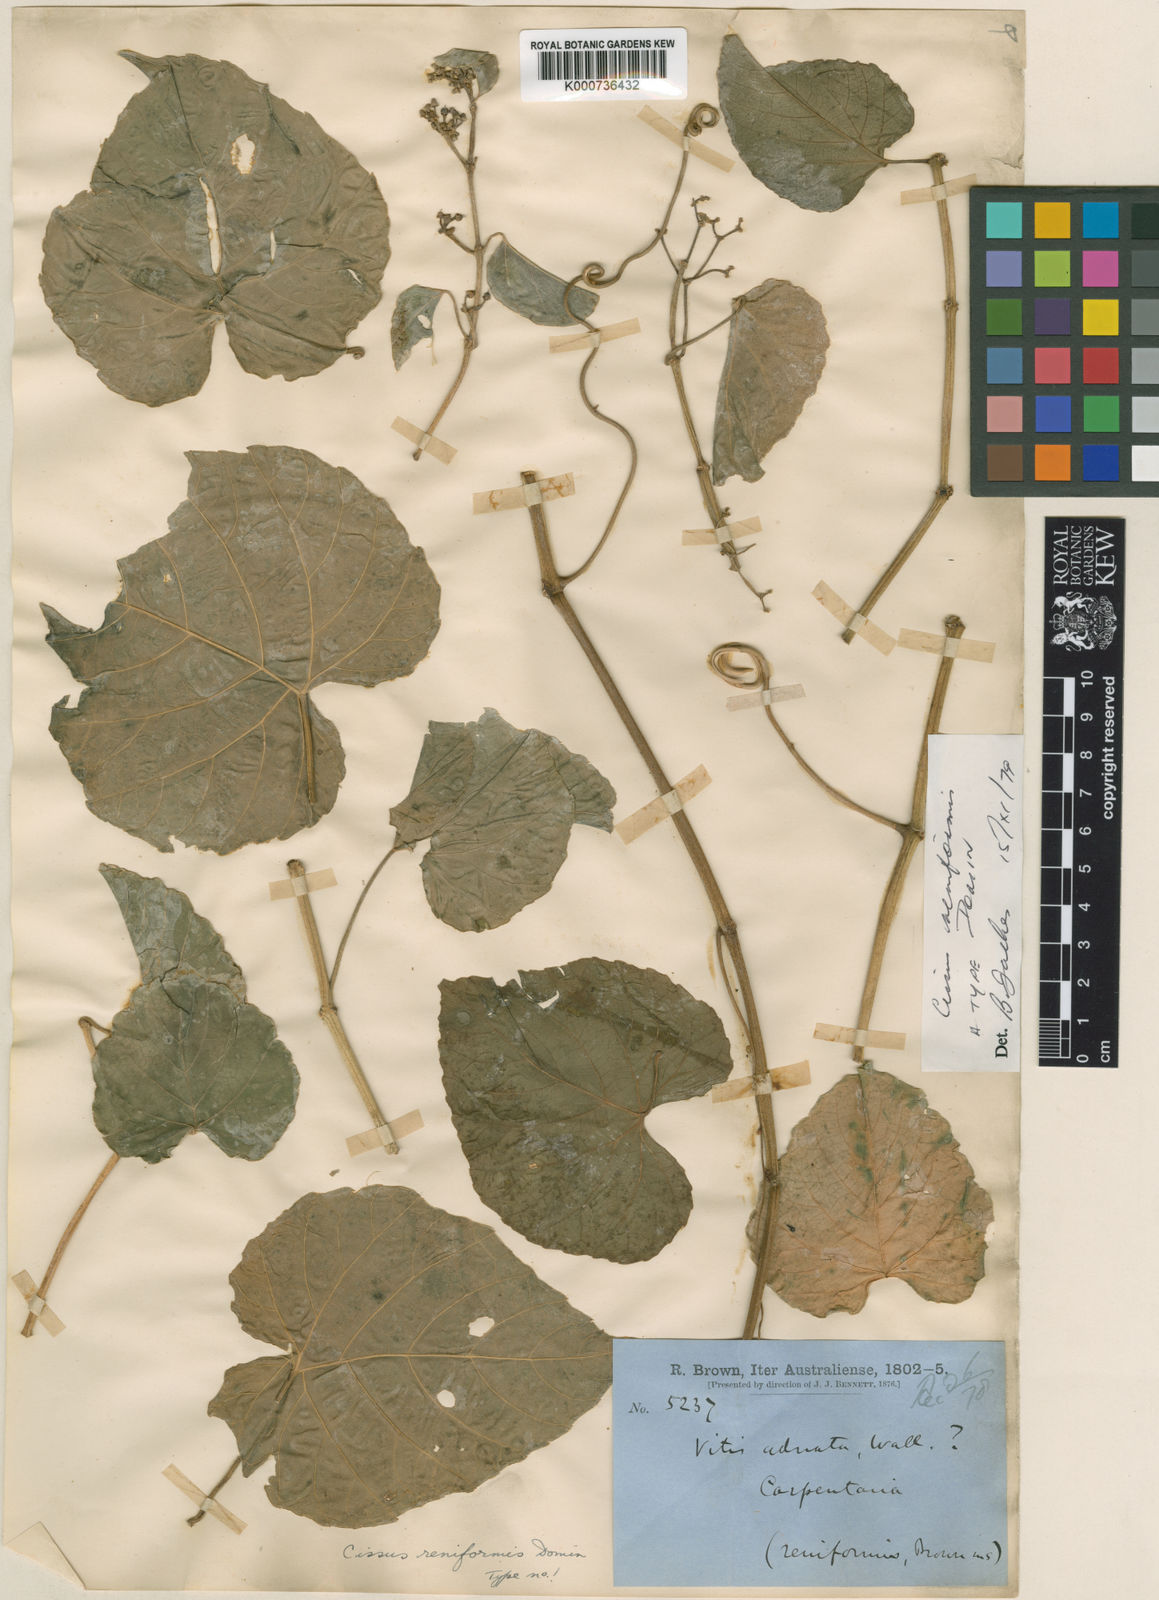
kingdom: Plantae
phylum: Tracheophyta
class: Magnoliopsida
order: Vitales
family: Vitaceae
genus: Cissus
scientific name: Cissus reniformis
